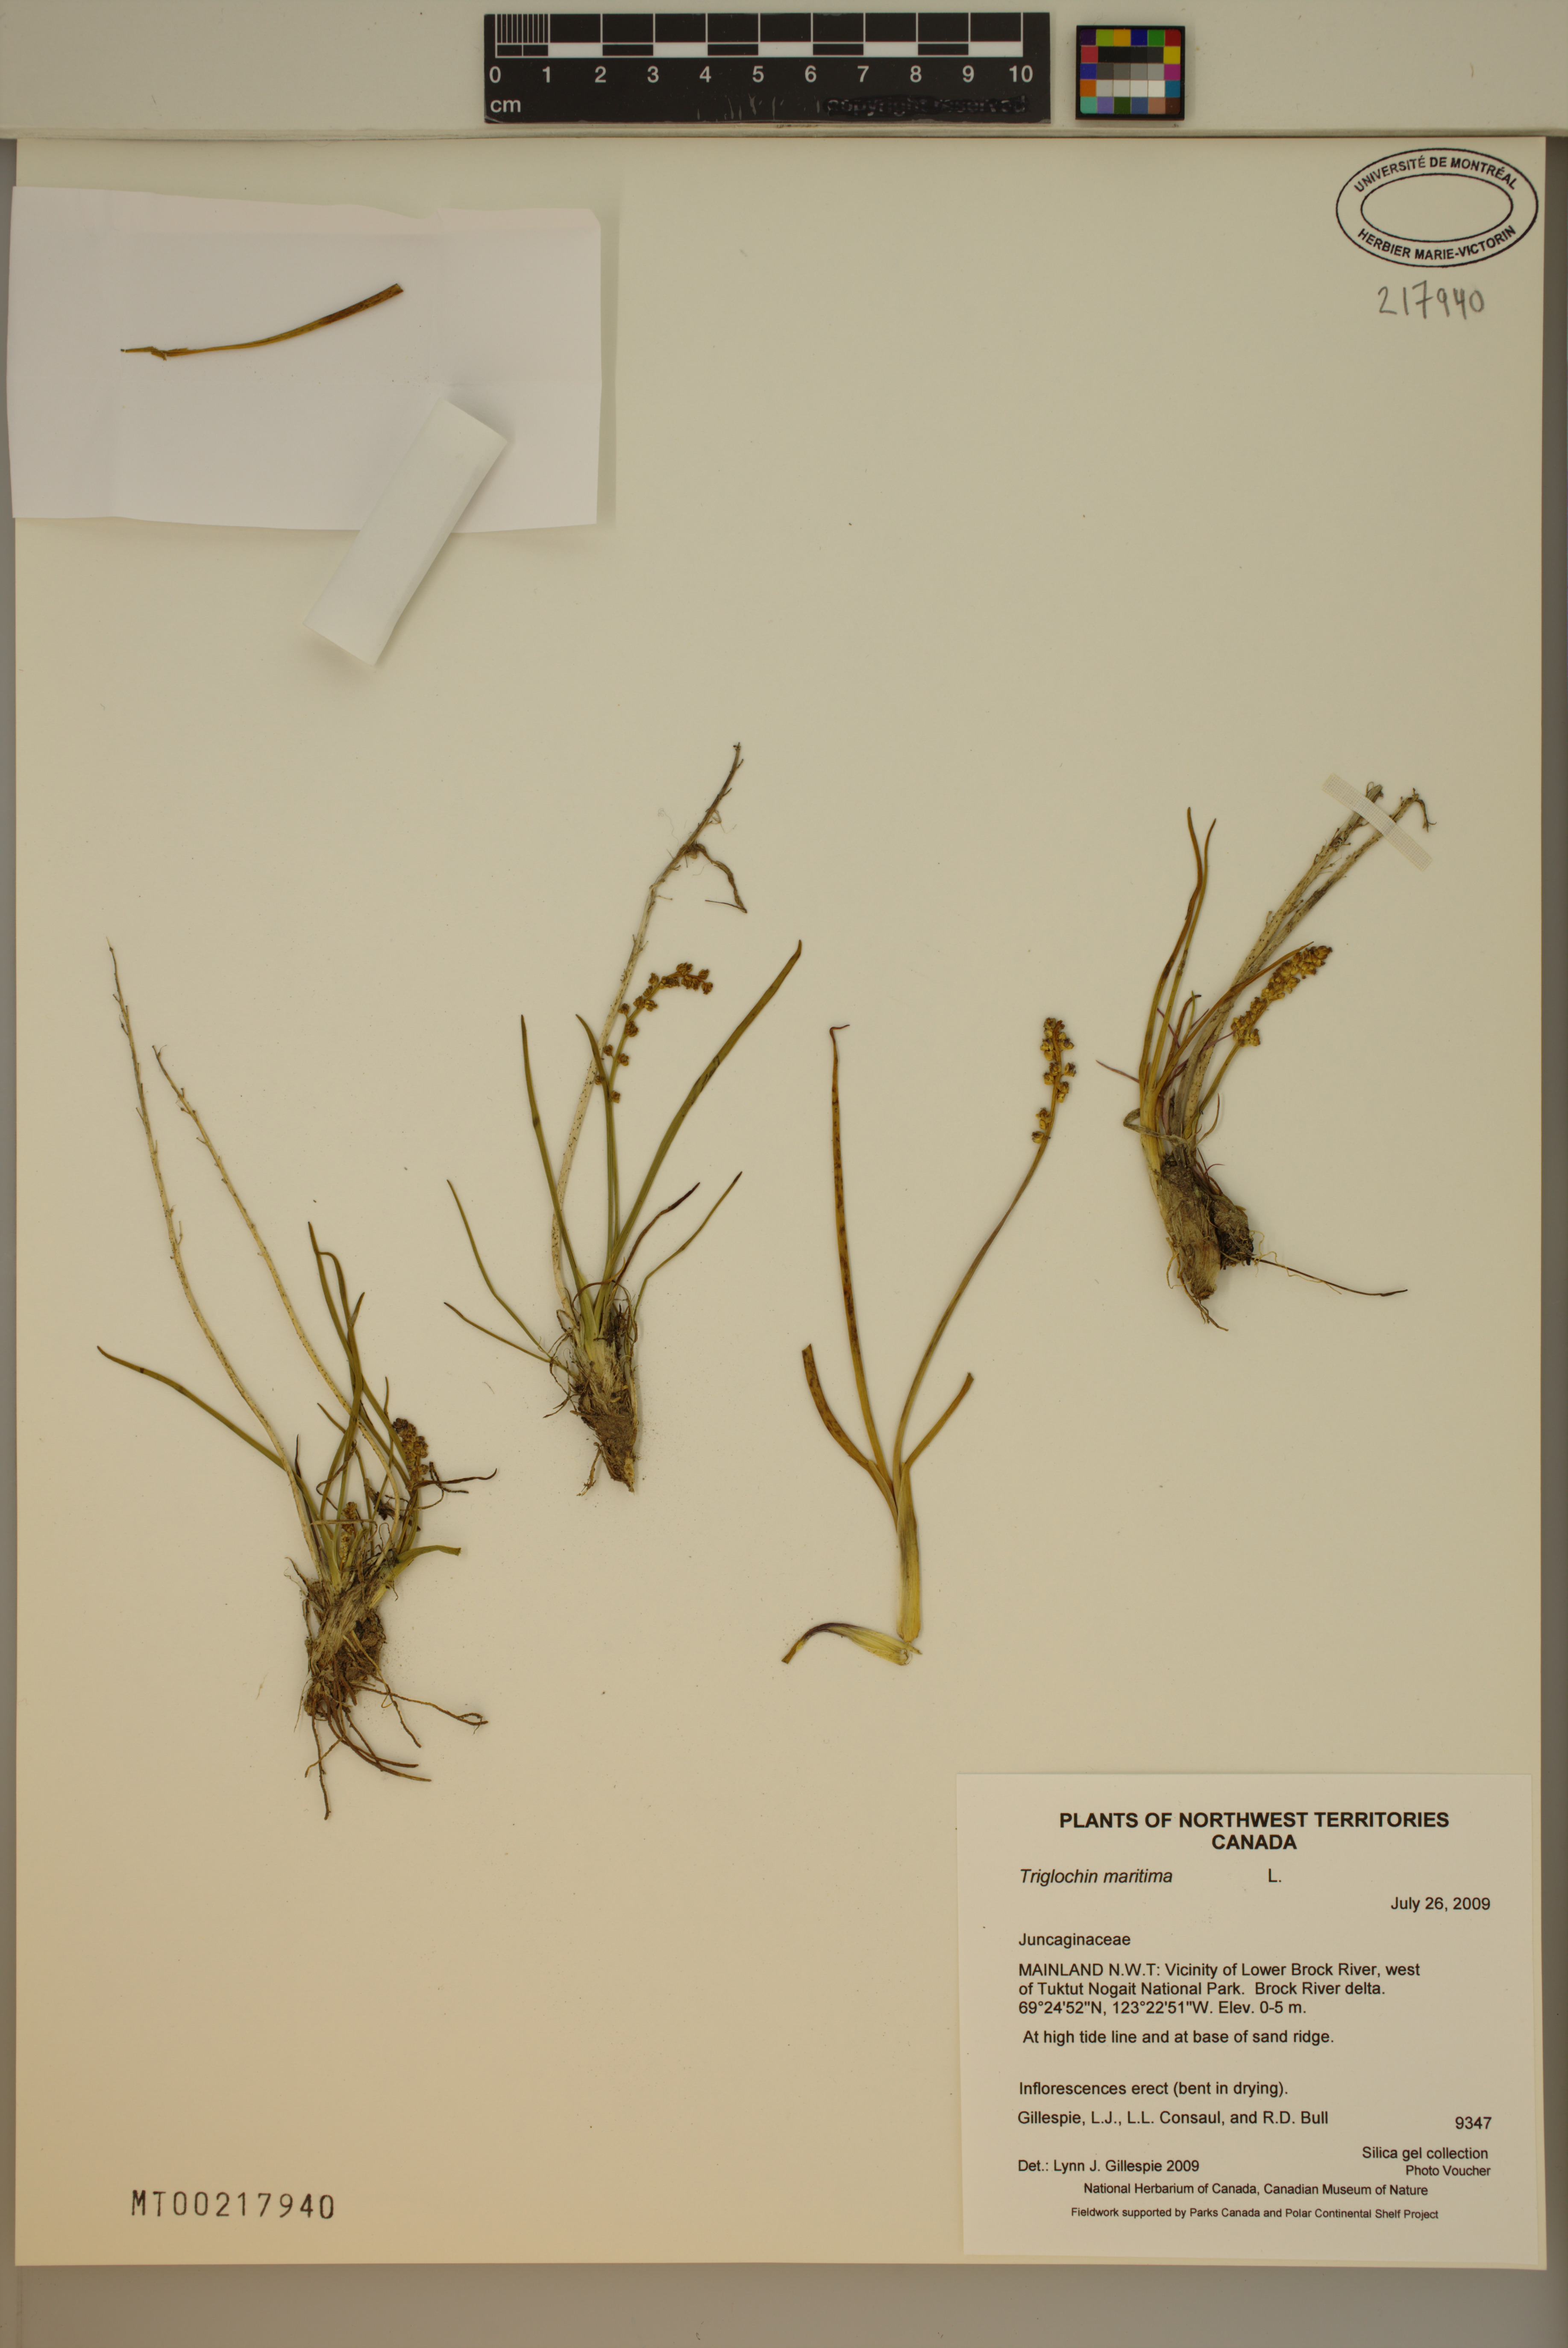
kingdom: Plantae
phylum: Tracheophyta
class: Liliopsida
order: Alismatales
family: Juncaginaceae
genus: Triglochin
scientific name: Triglochin maritima
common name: Sea arrowgrass
